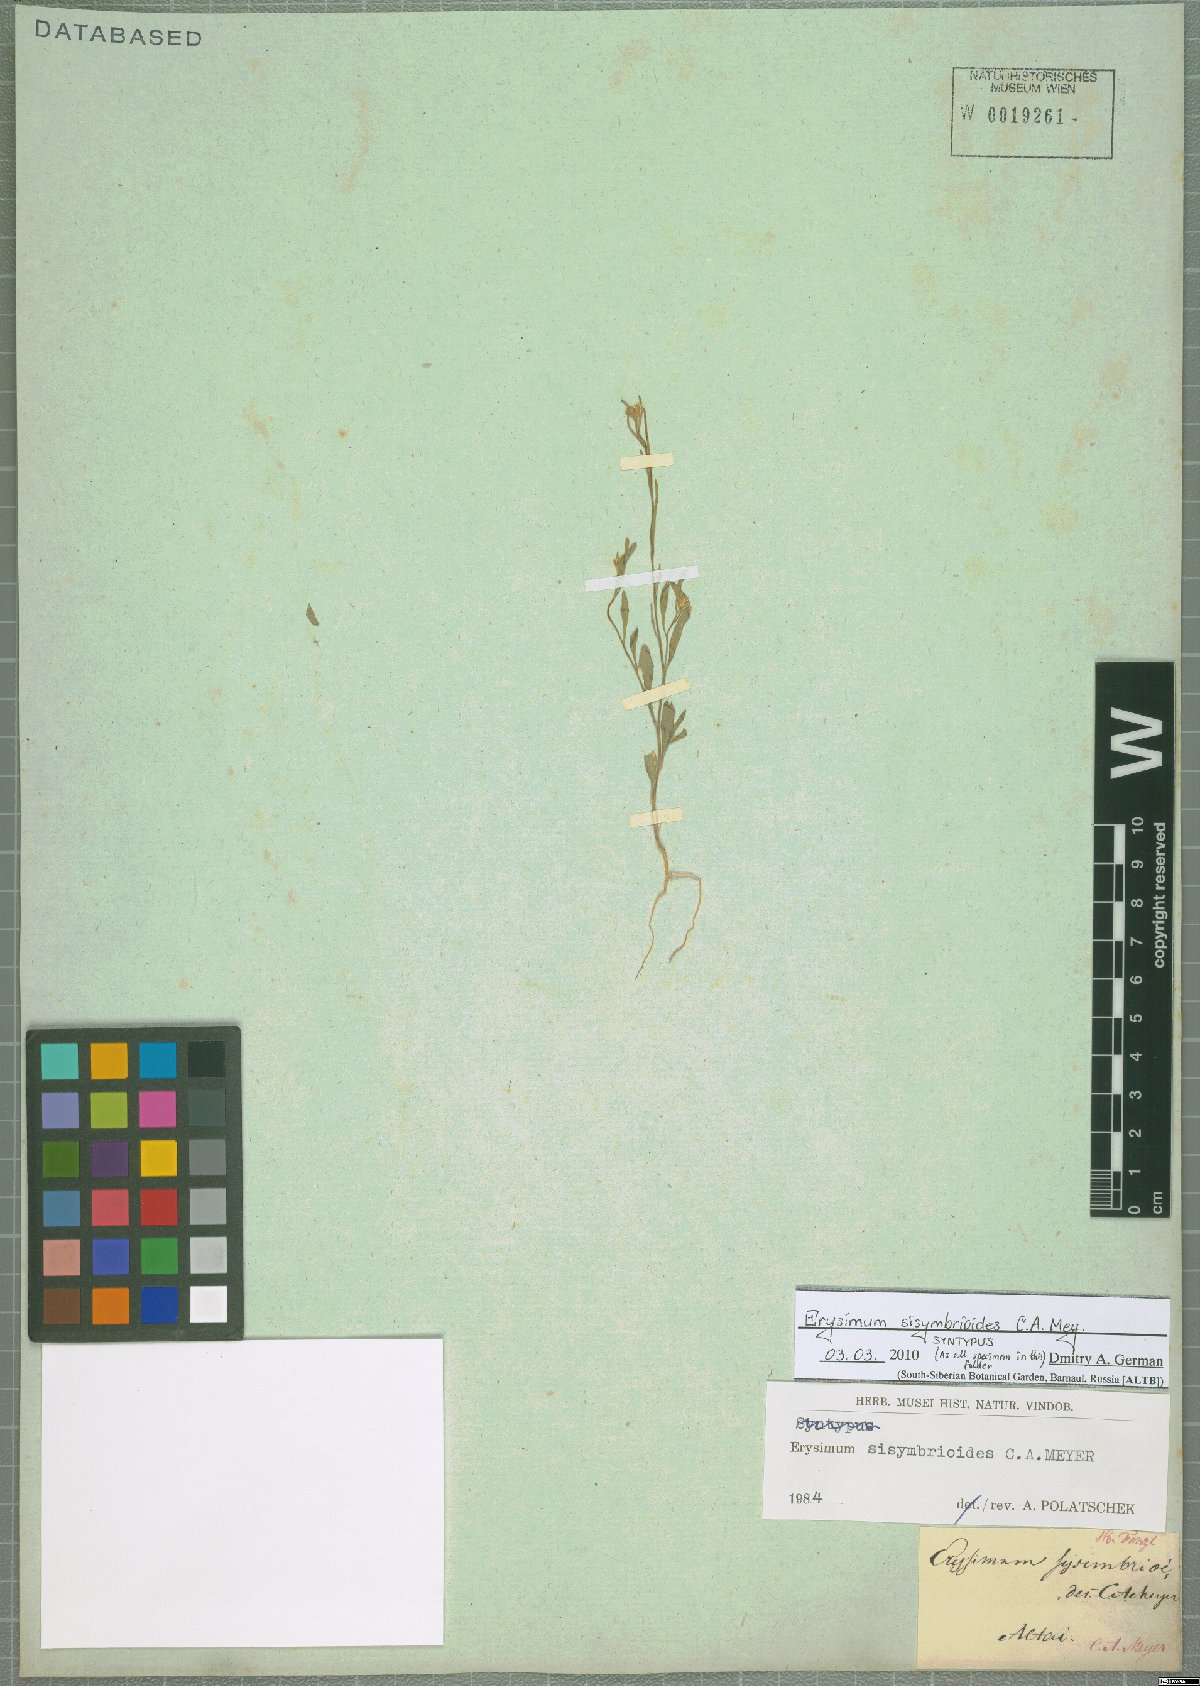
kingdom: Plantae
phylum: Tracheophyta
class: Magnoliopsida
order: Brassicales
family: Brassicaceae
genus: Erysimum
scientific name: Erysimum sisymbrioides
